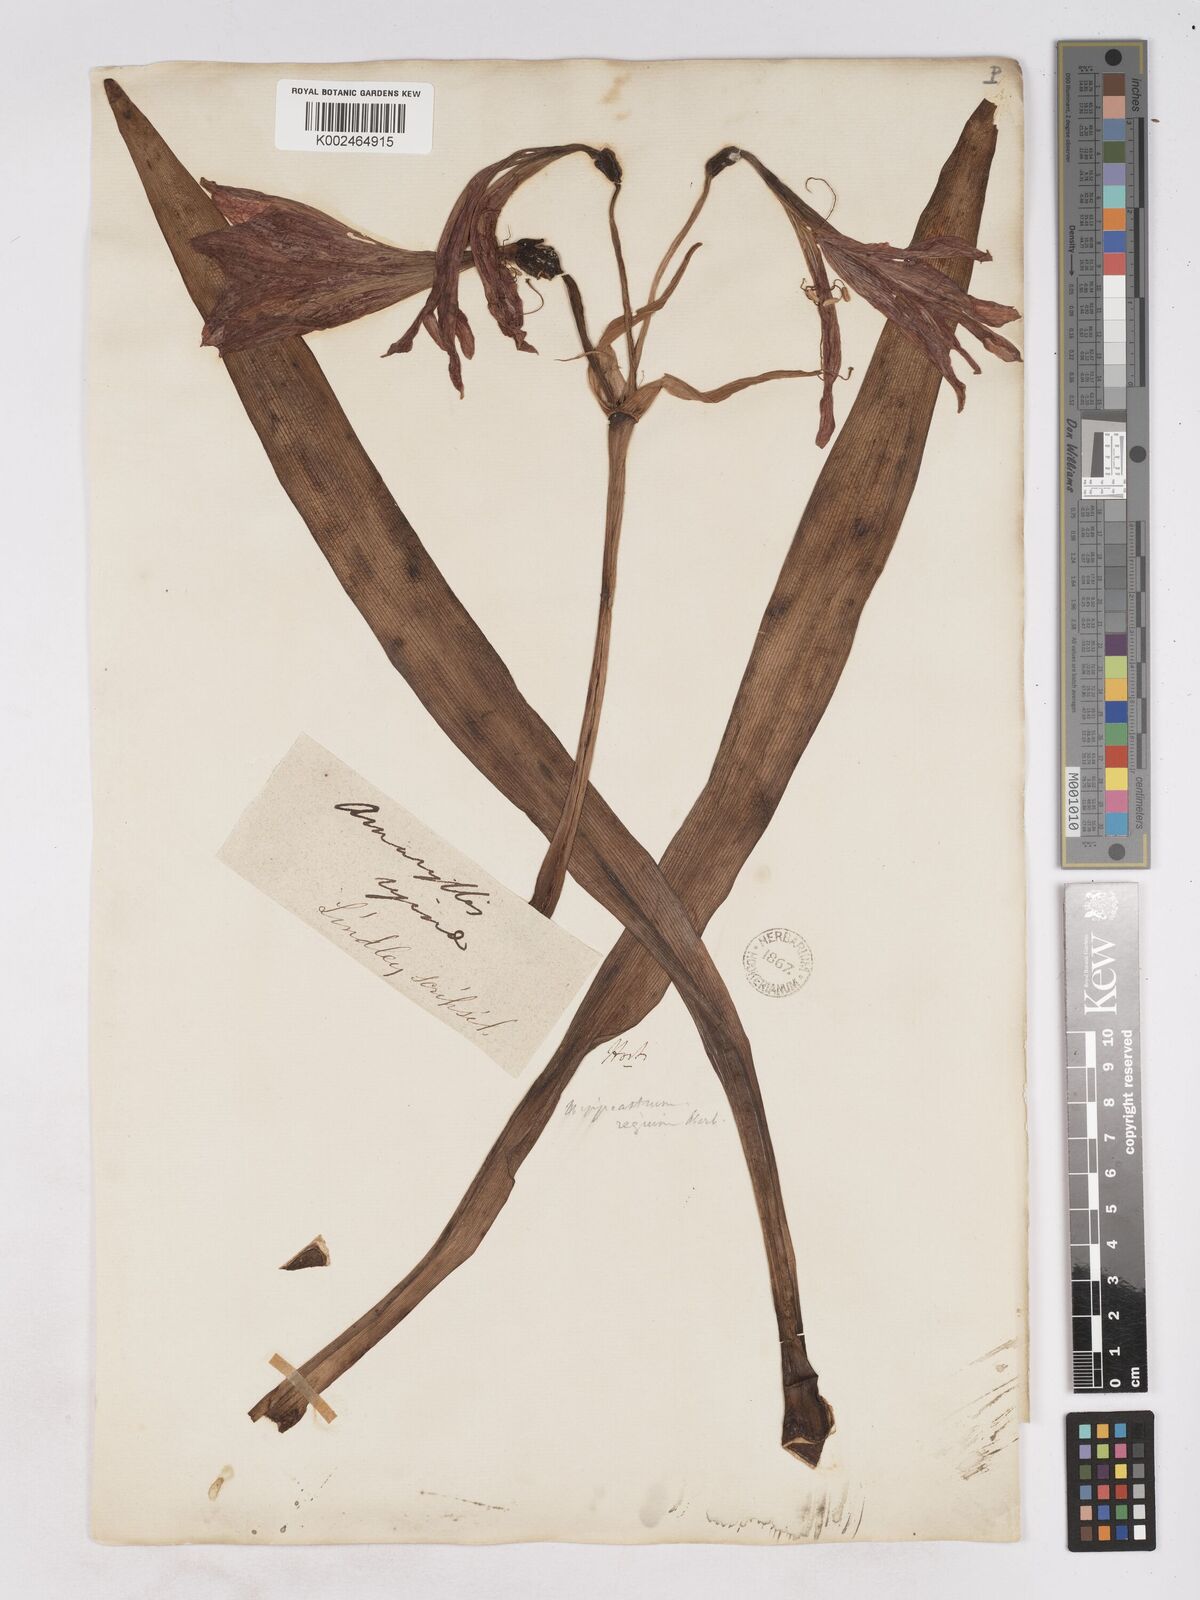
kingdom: Plantae
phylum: Tracheophyta
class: Liliopsida
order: Asparagales
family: Amaryllidaceae
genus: Hippeastrum
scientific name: Hippeastrum reginae
